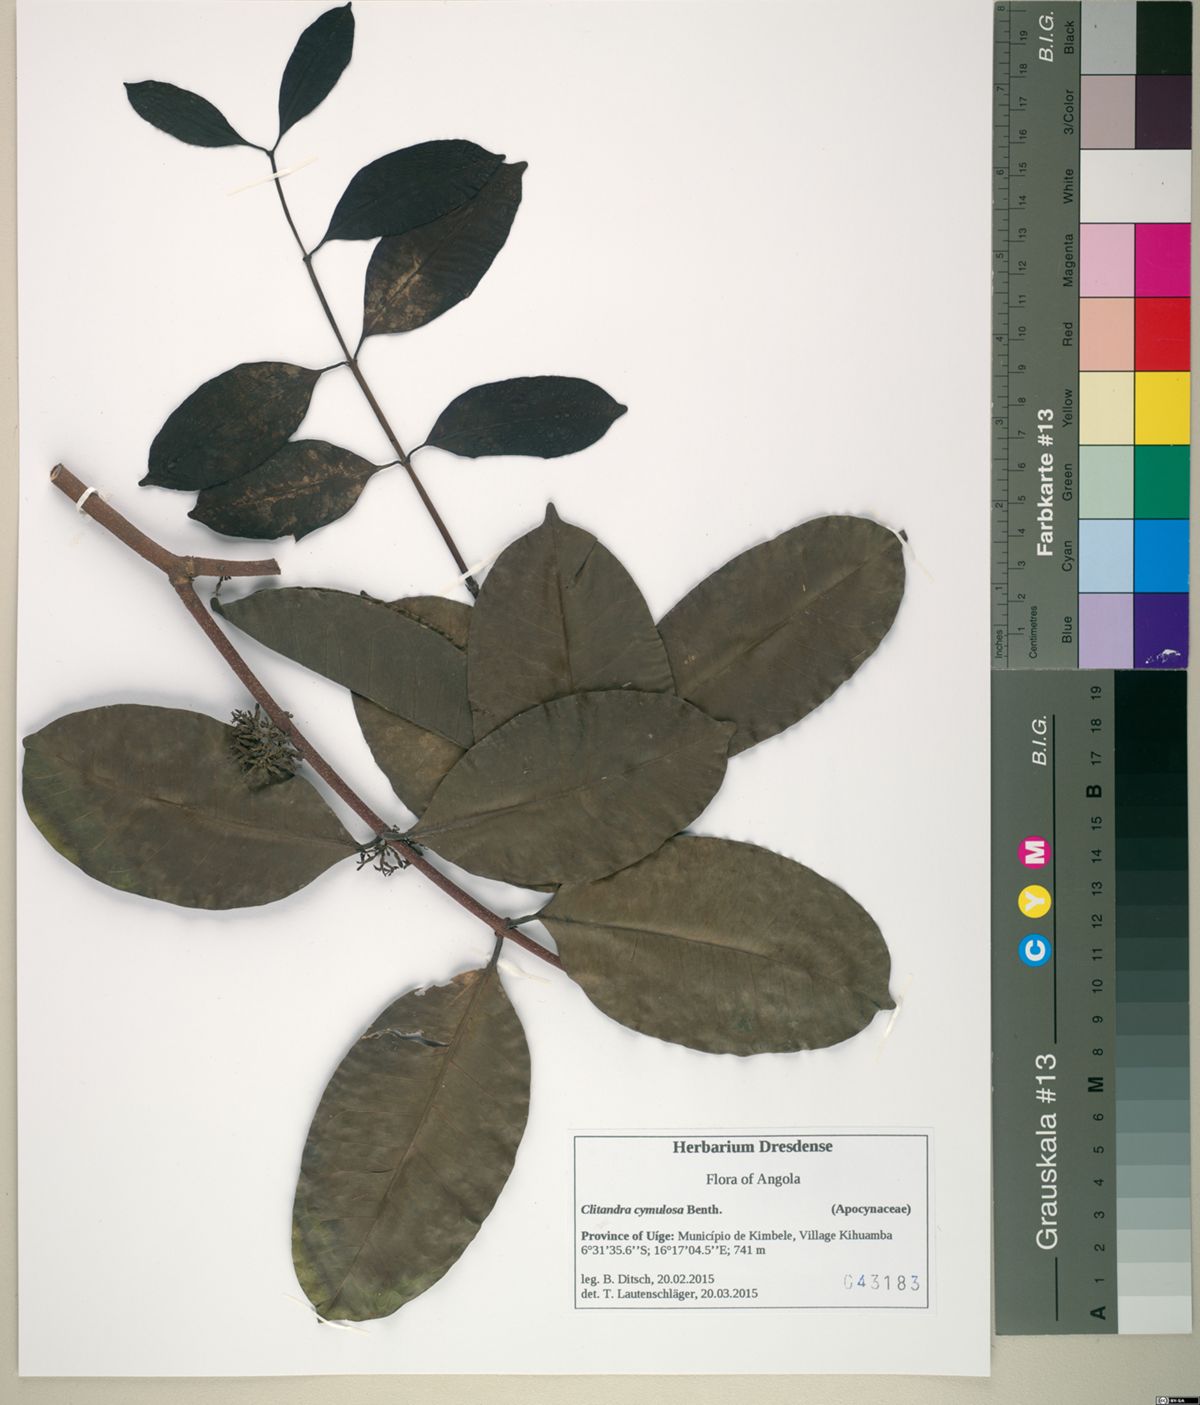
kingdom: Plantae
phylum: Tracheophyta
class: Magnoliopsida
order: Gentianales
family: Apocynaceae
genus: Clitandra
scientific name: Clitandra cymulosa
